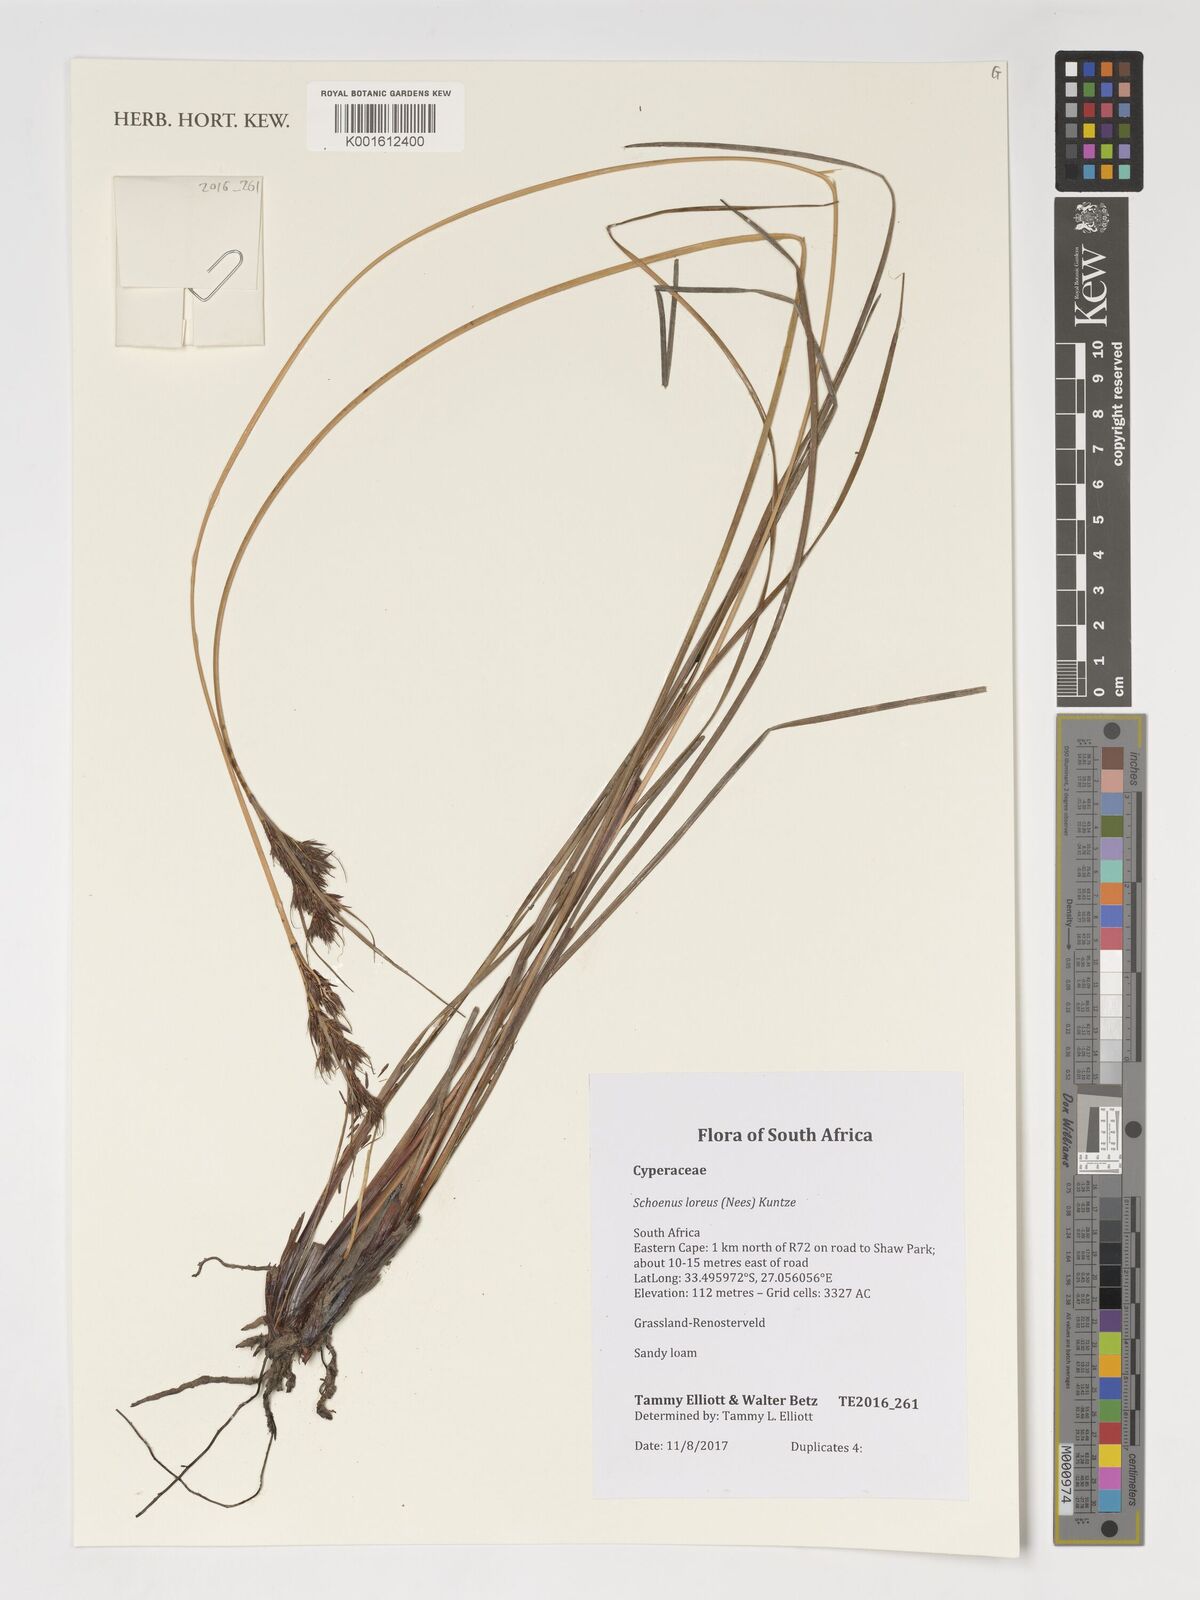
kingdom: Plantae
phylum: Tracheophyta
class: Liliopsida
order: Poales
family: Cyperaceae
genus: Schoenus
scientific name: Schoenus loreus
